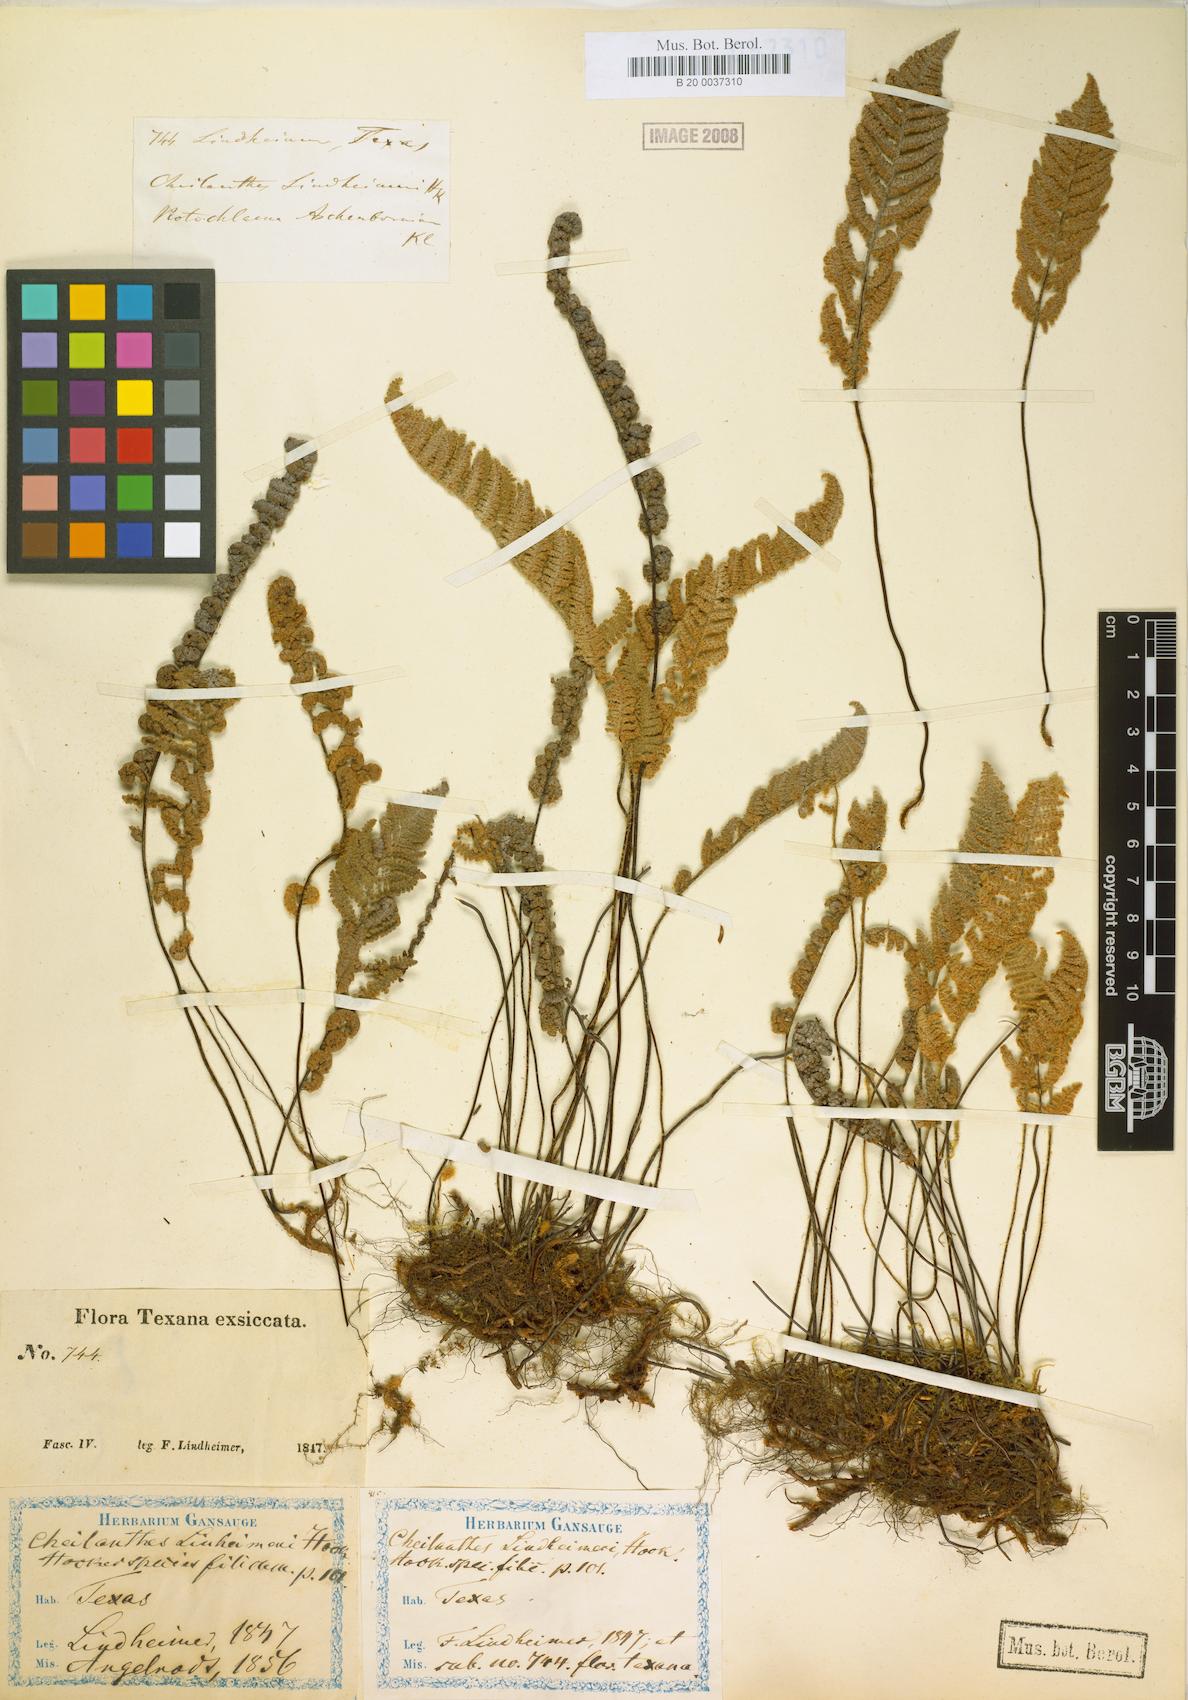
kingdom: Plantae
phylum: Tracheophyta
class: Polypodiopsida
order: Polypodiales
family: Pteridaceae
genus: Myriopteris
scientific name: Myriopteris lindheimeri
